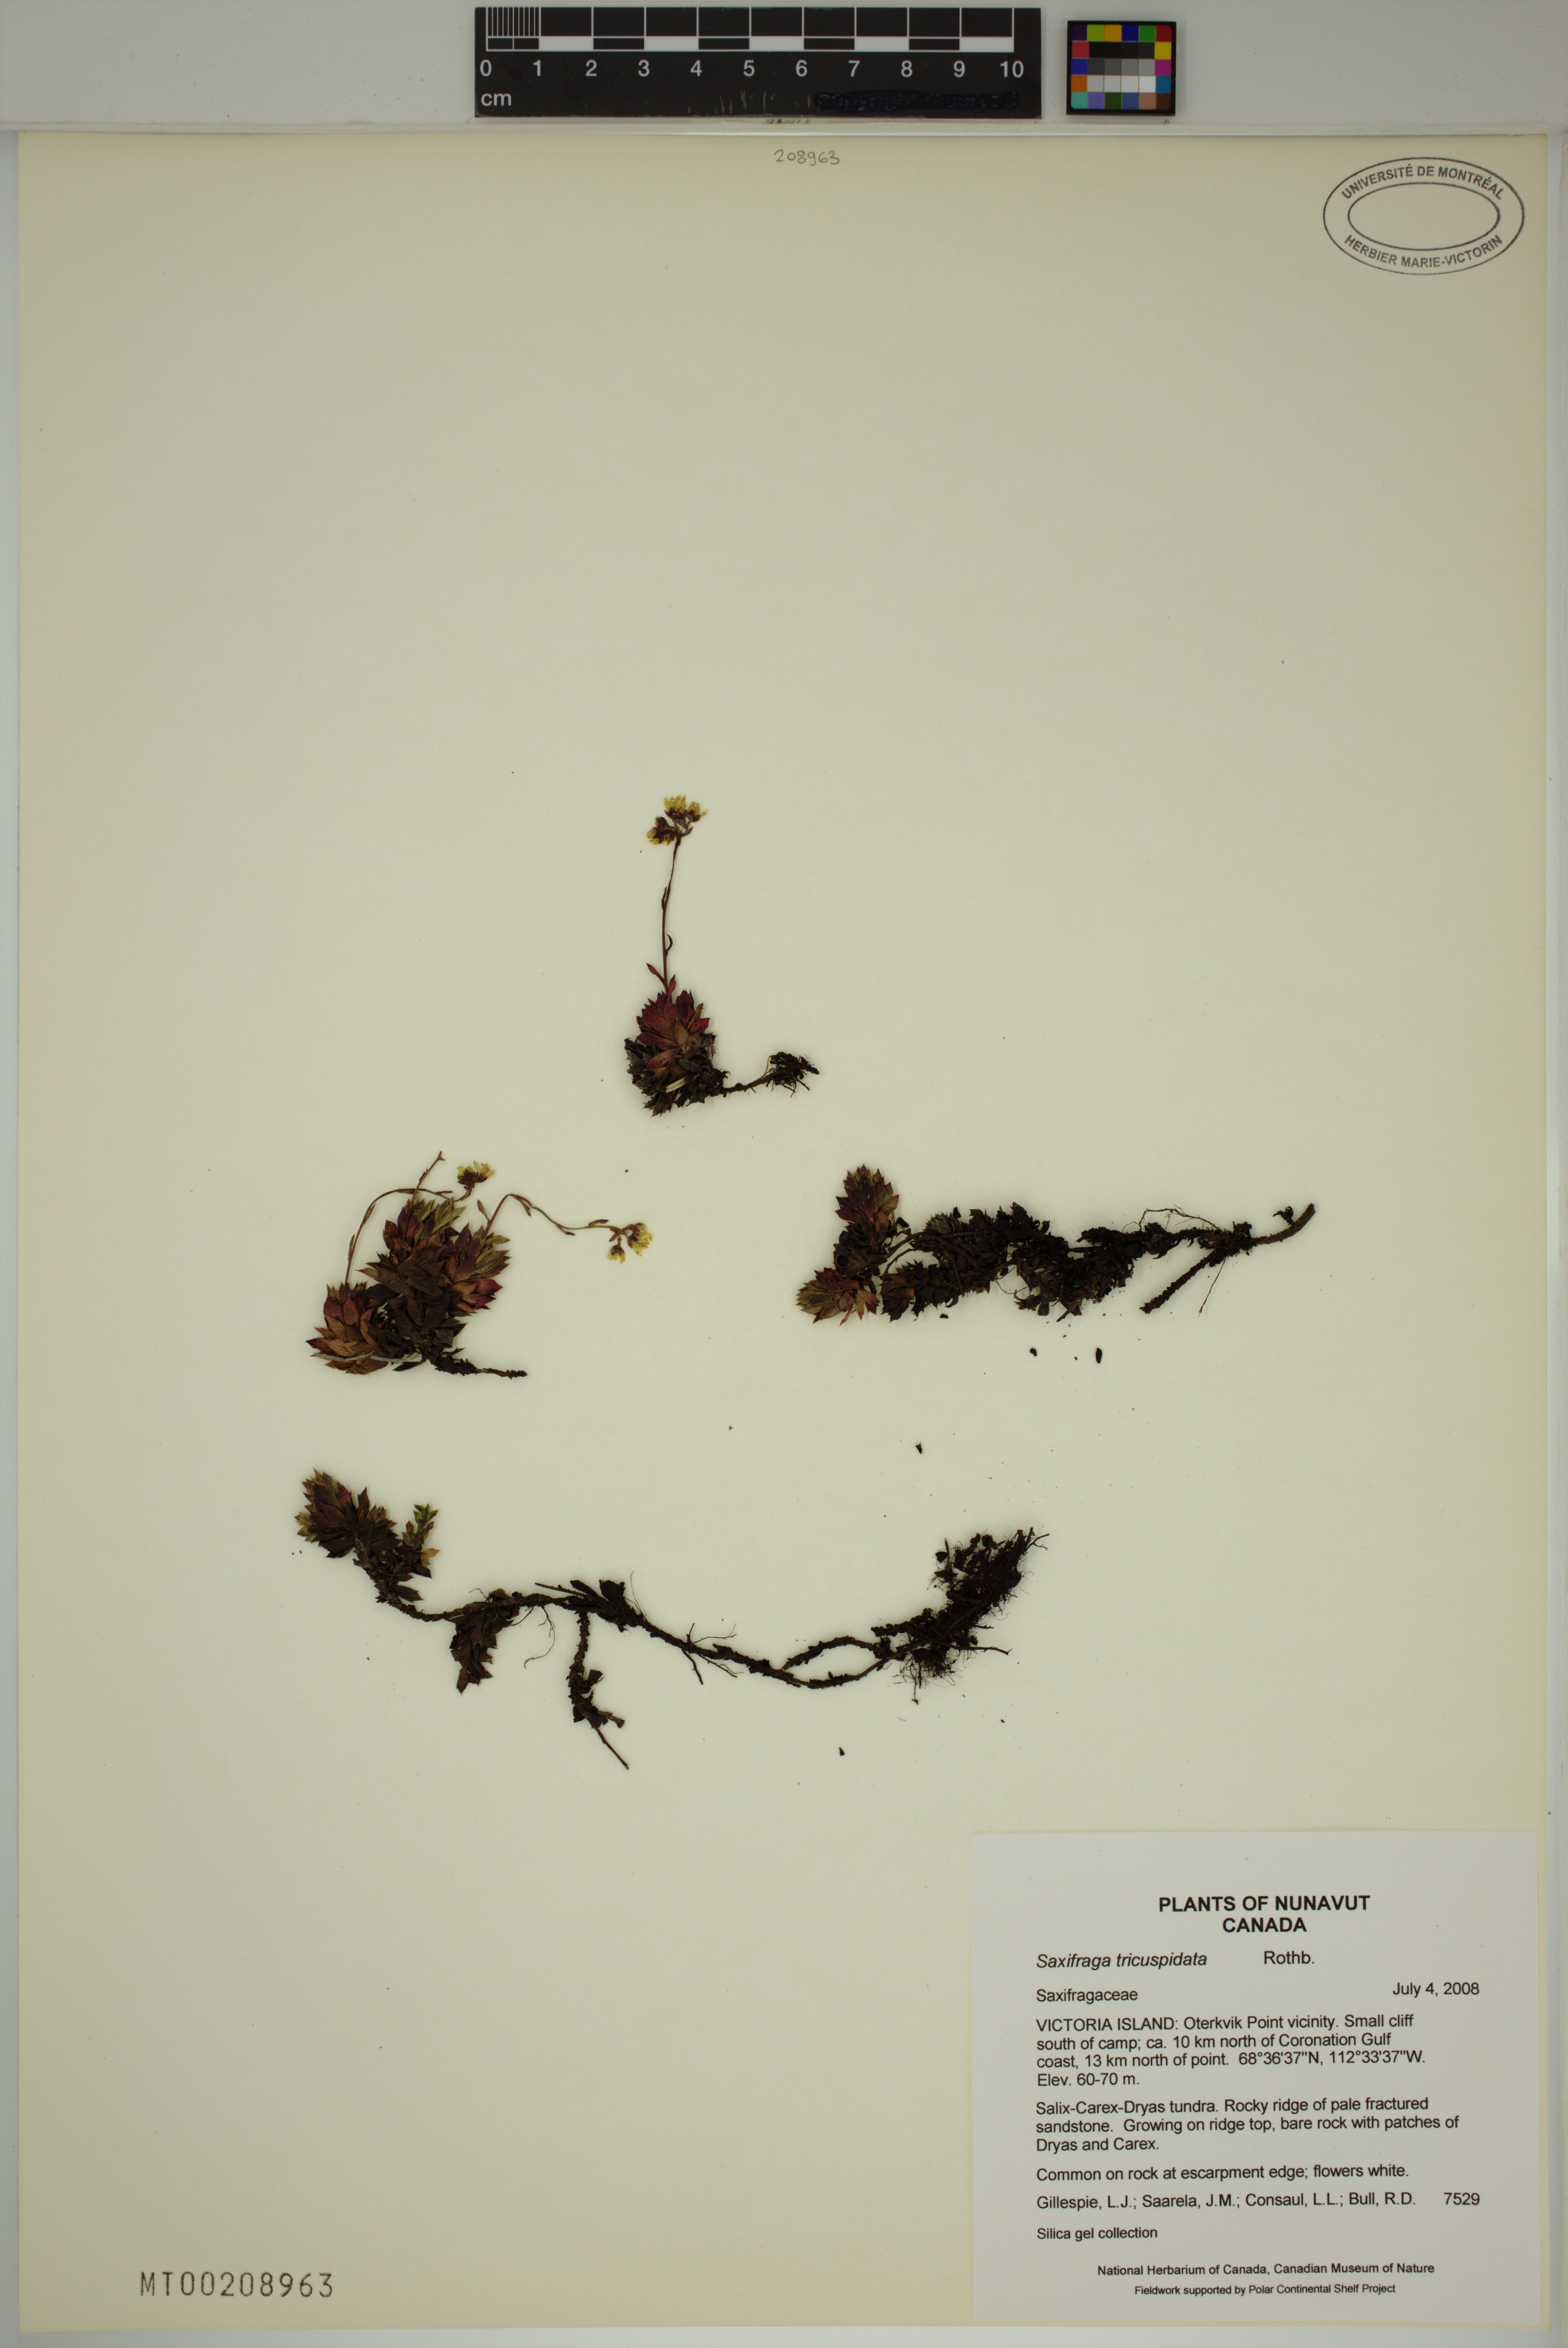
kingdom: Plantae
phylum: Tracheophyta
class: Magnoliopsida
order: Saxifragales
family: Saxifragaceae
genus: Saxifraga
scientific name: Saxifraga tricuspidata
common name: Prickly saxifrage
